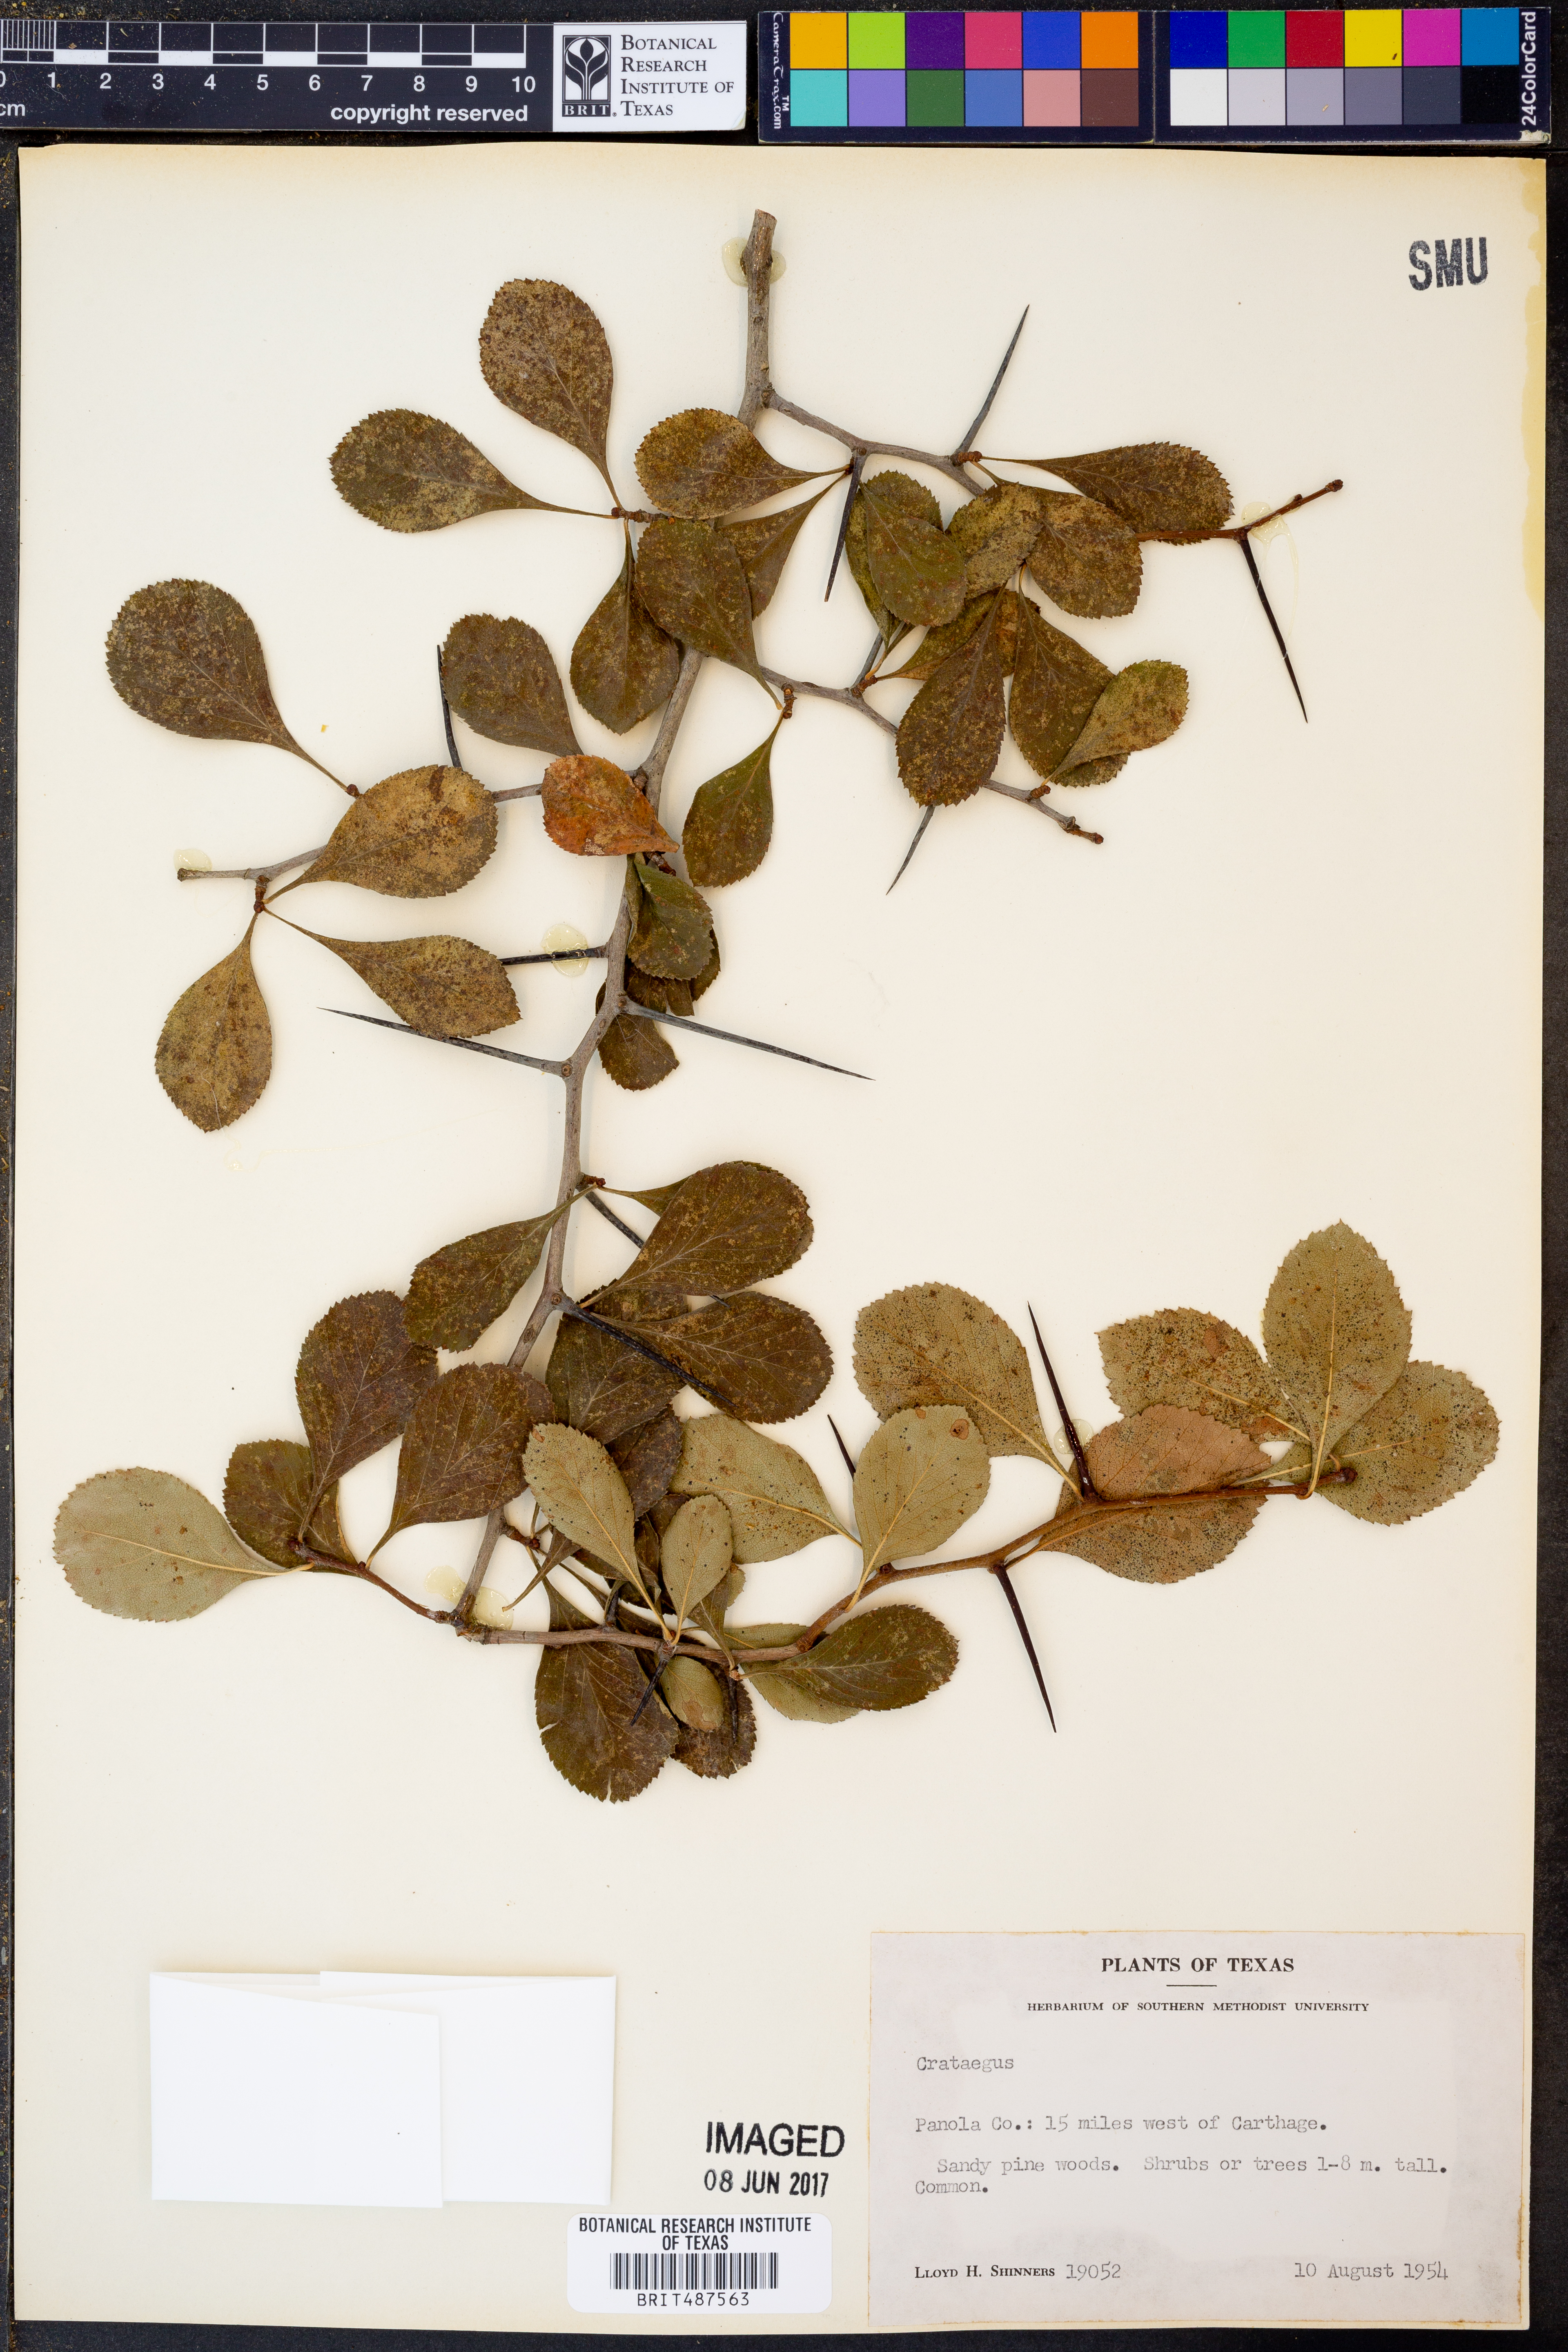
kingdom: Plantae
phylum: Tracheophyta
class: Magnoliopsida
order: Rosales
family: Rosaceae
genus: Crataegus
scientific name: Crataegus
